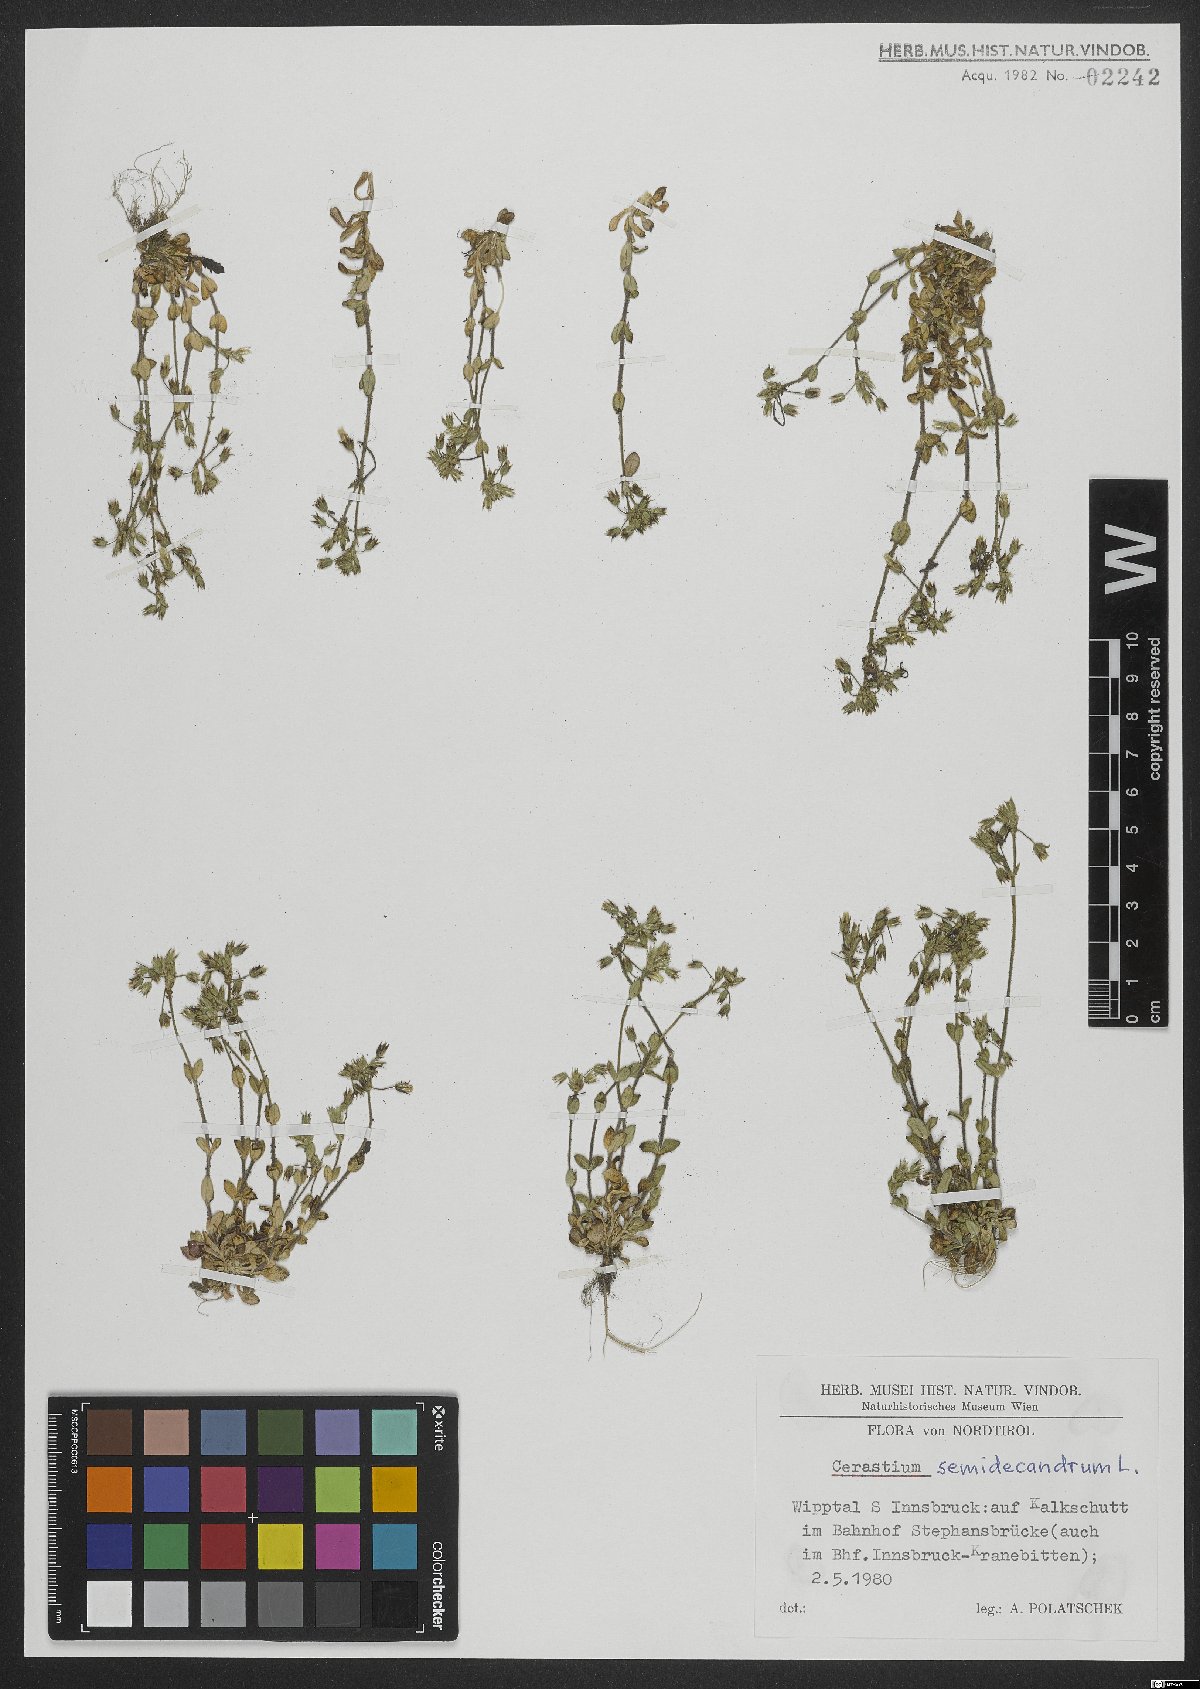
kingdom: Plantae
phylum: Tracheophyta
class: Magnoliopsida
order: Caryophyllales
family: Caryophyllaceae
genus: Cerastium
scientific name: Cerastium semidecandrum
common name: Little mouse-ear
